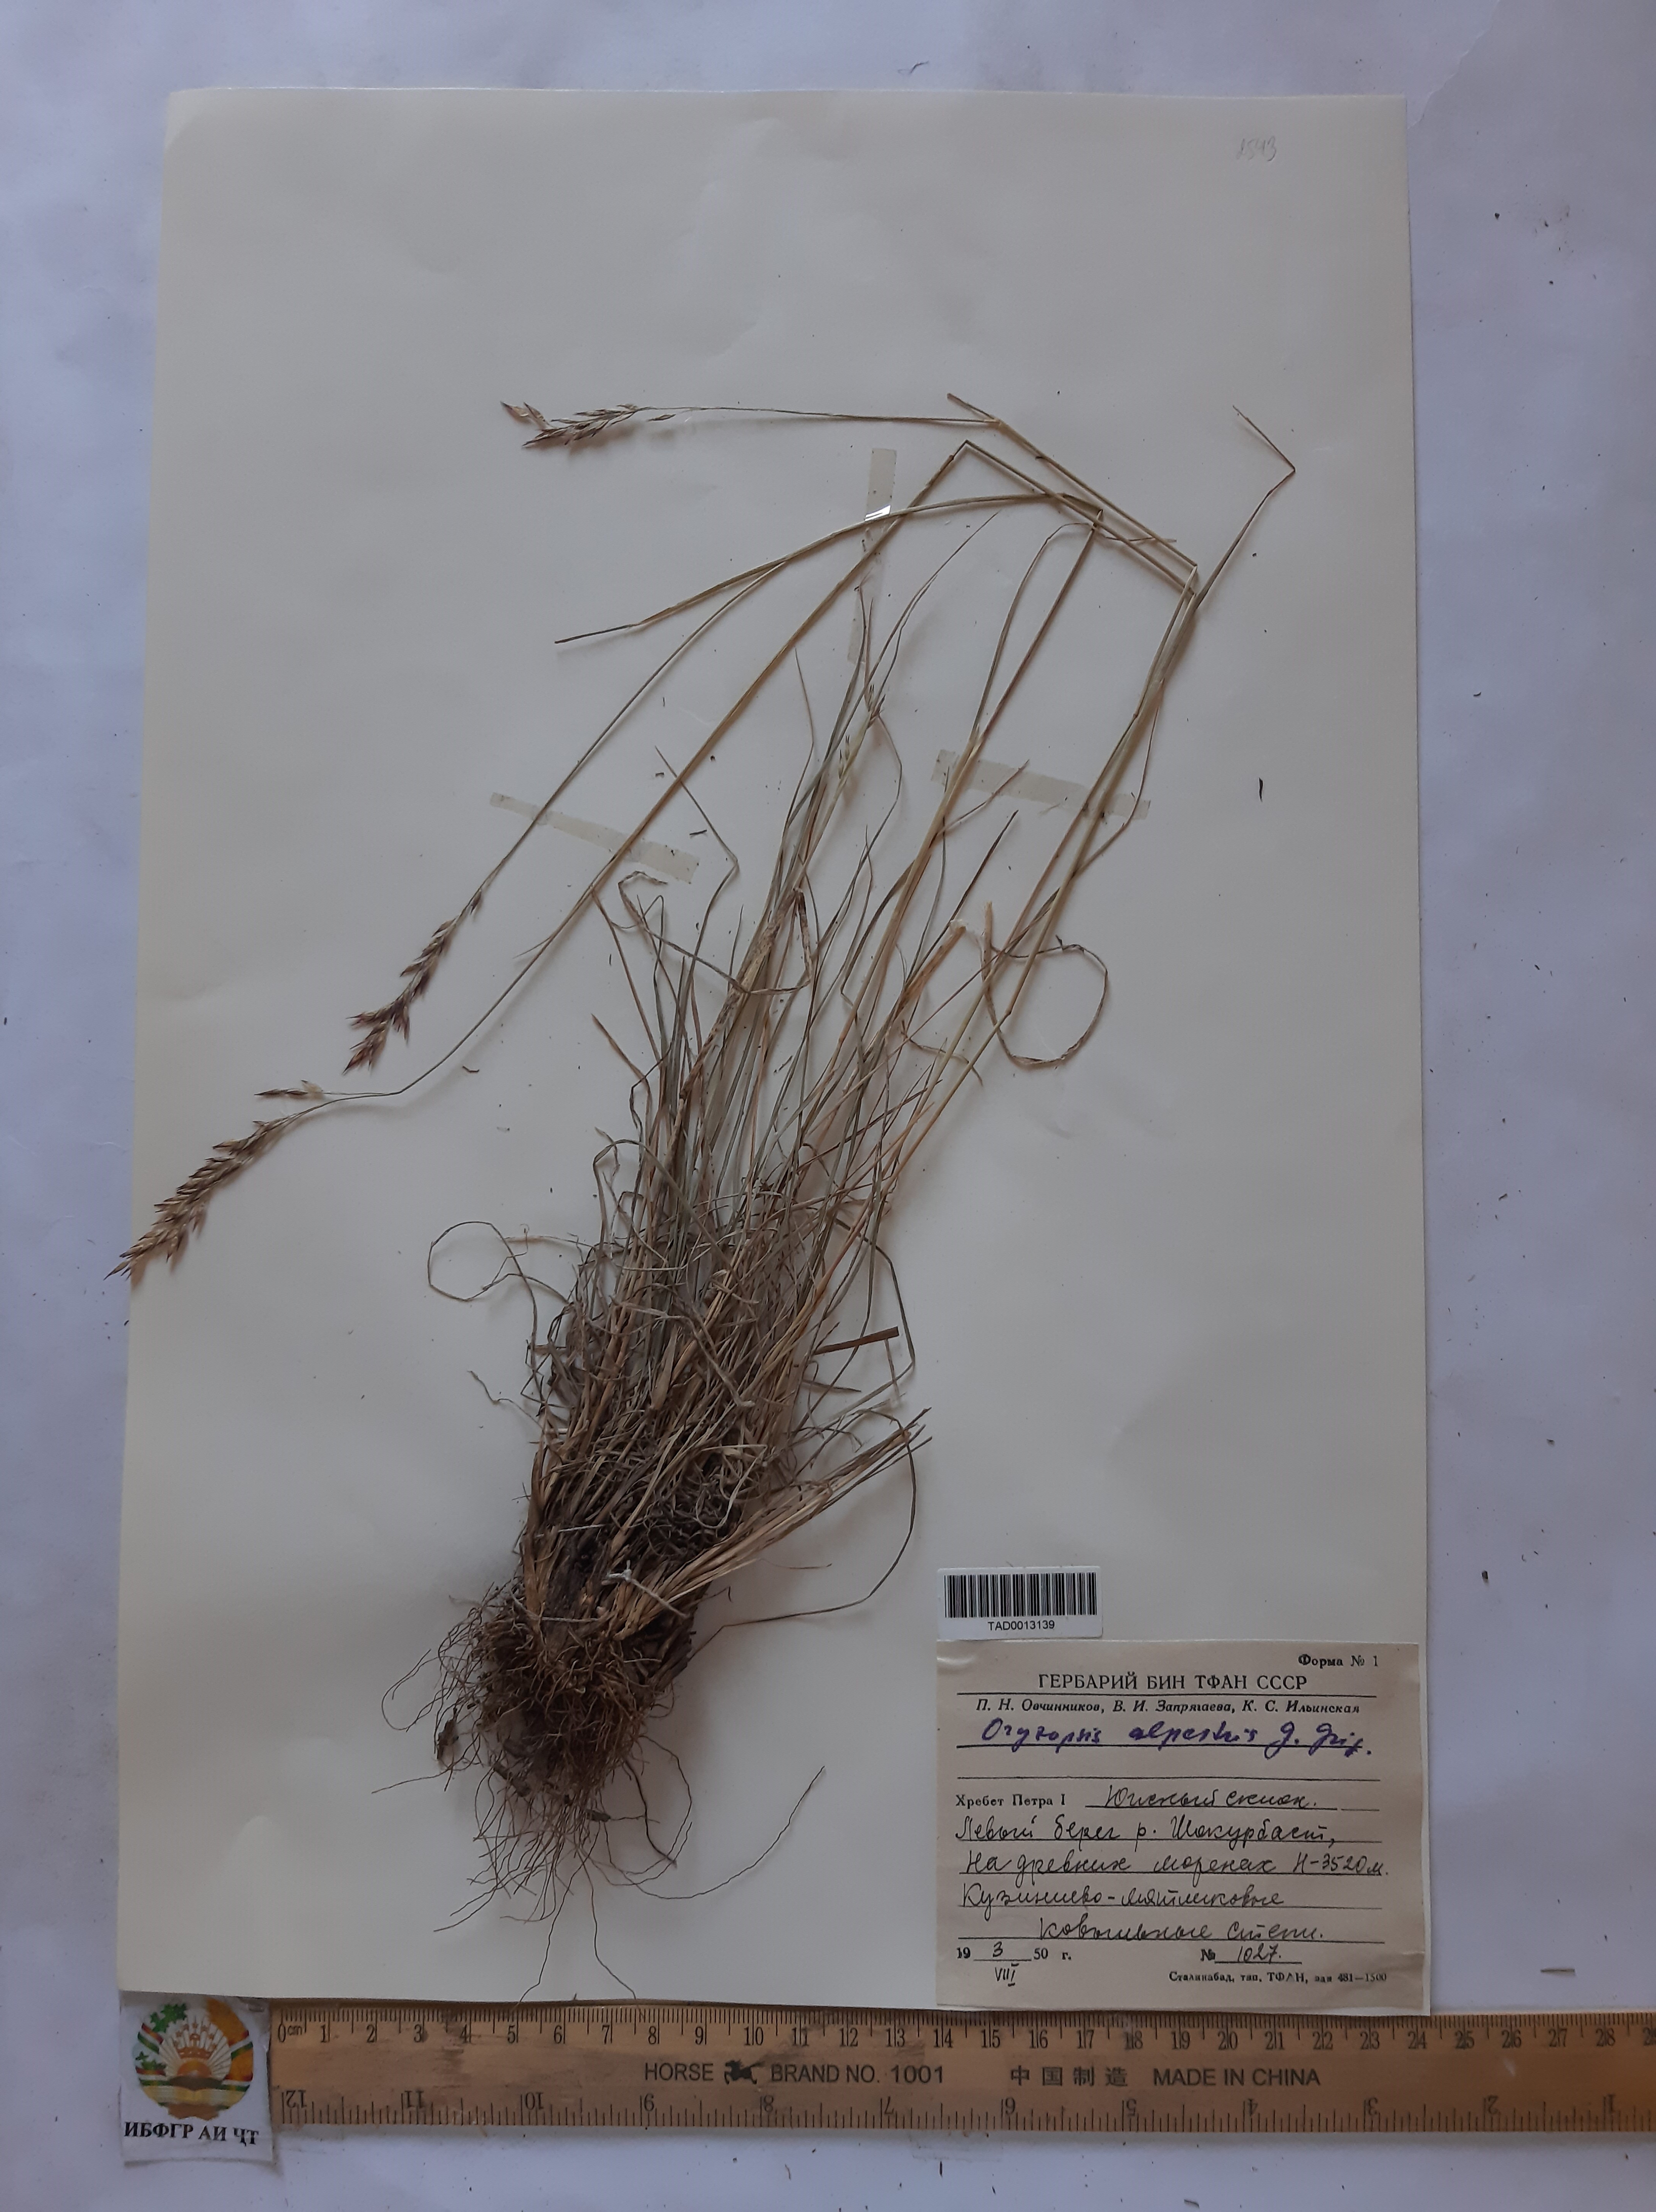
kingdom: Plantae
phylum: Tracheophyta
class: Liliopsida
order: Poales
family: Poaceae
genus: Piptatherum
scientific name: Piptatherum alpestre
